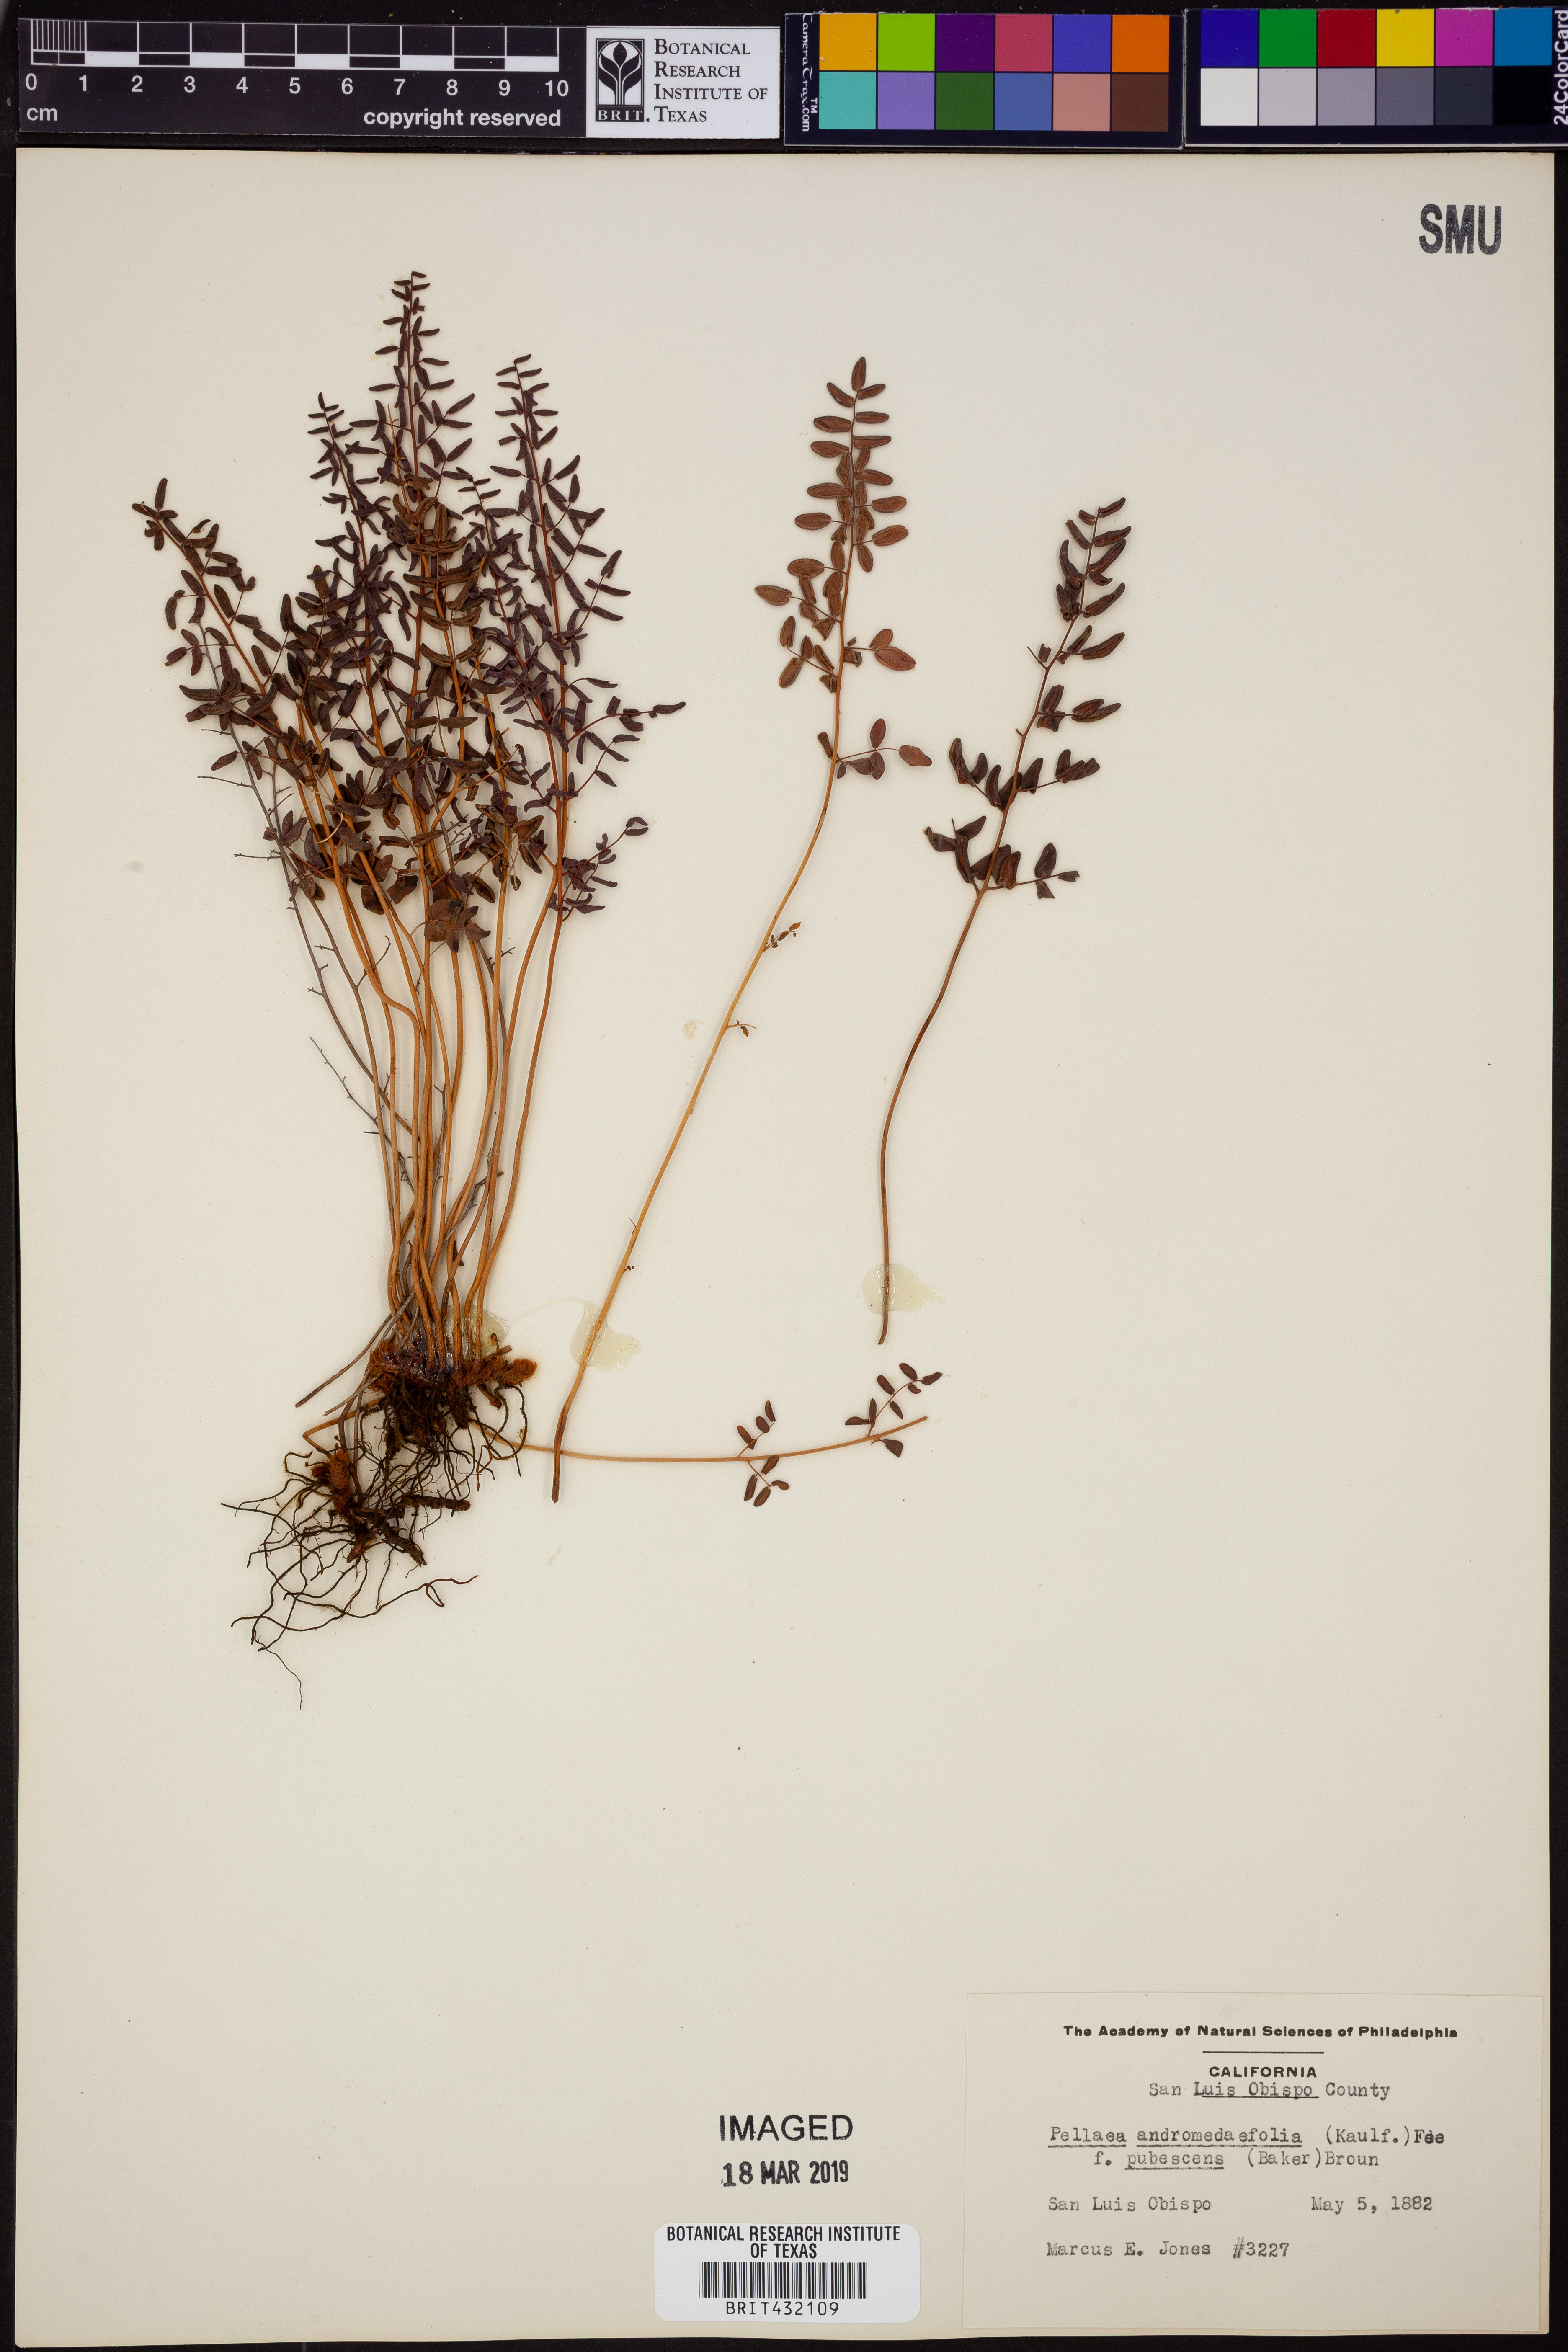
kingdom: Plantae
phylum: Tracheophyta
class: Polypodiopsida
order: Polypodiales
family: Pteridaceae
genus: Pellaea
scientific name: Pellaea andromedifolia
